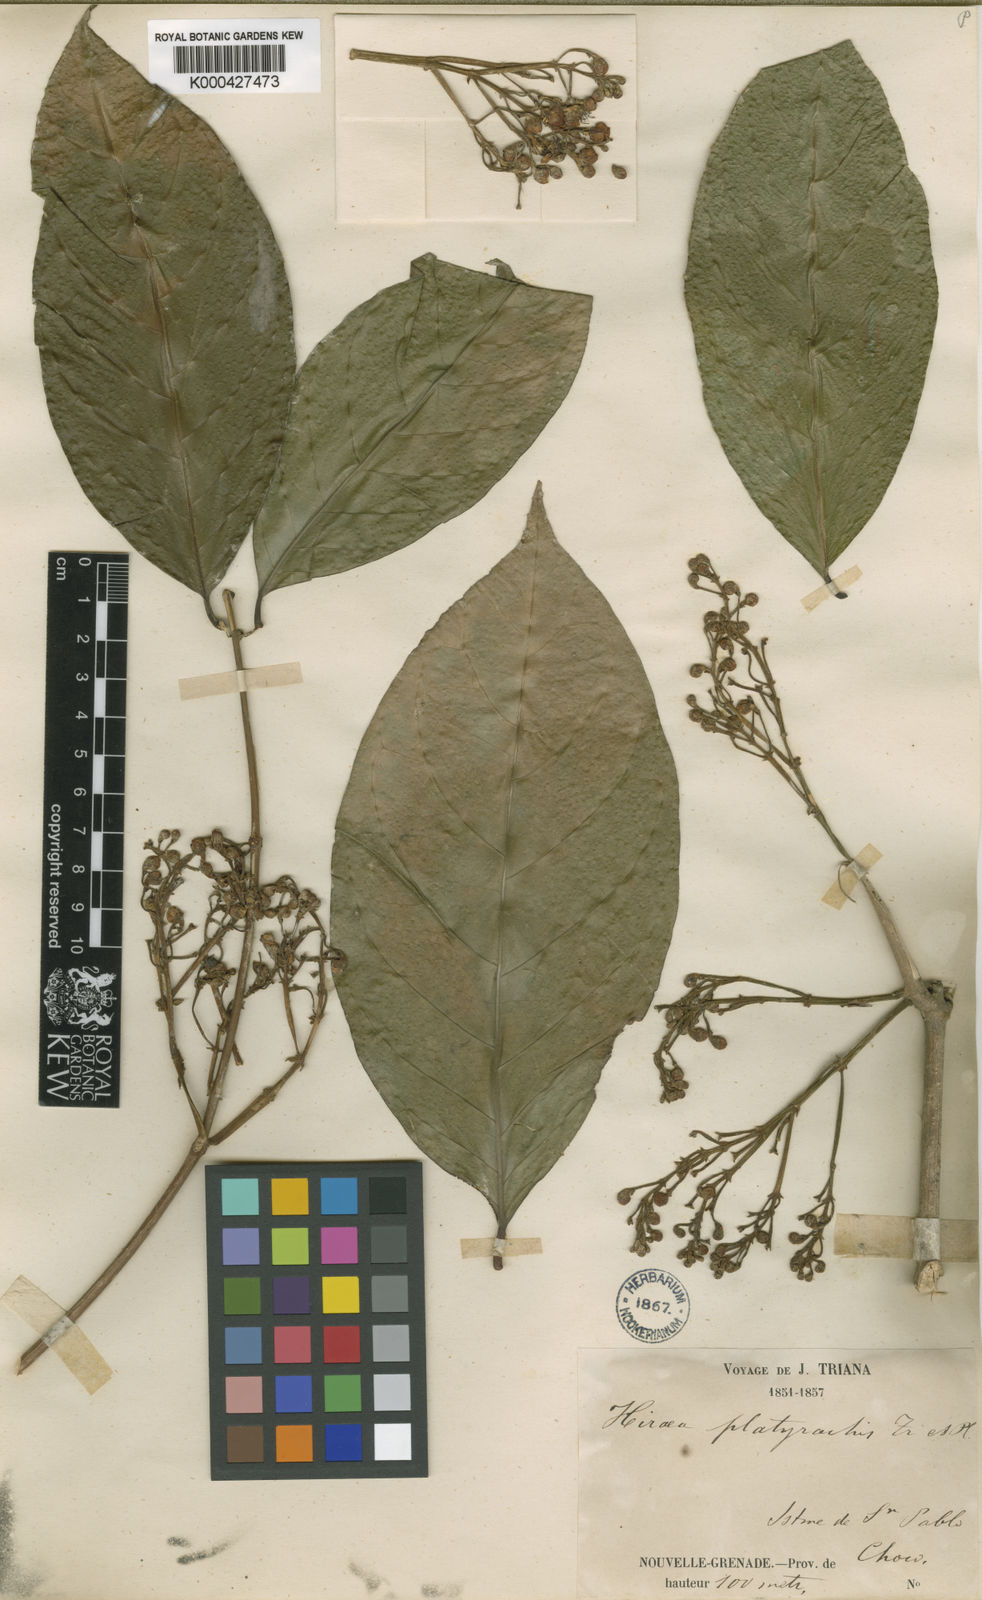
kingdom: Plantae
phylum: Tracheophyta
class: Magnoliopsida
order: Malpighiales
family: Malpighiaceae
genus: Adelphia
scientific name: Adelphia platyrachis
